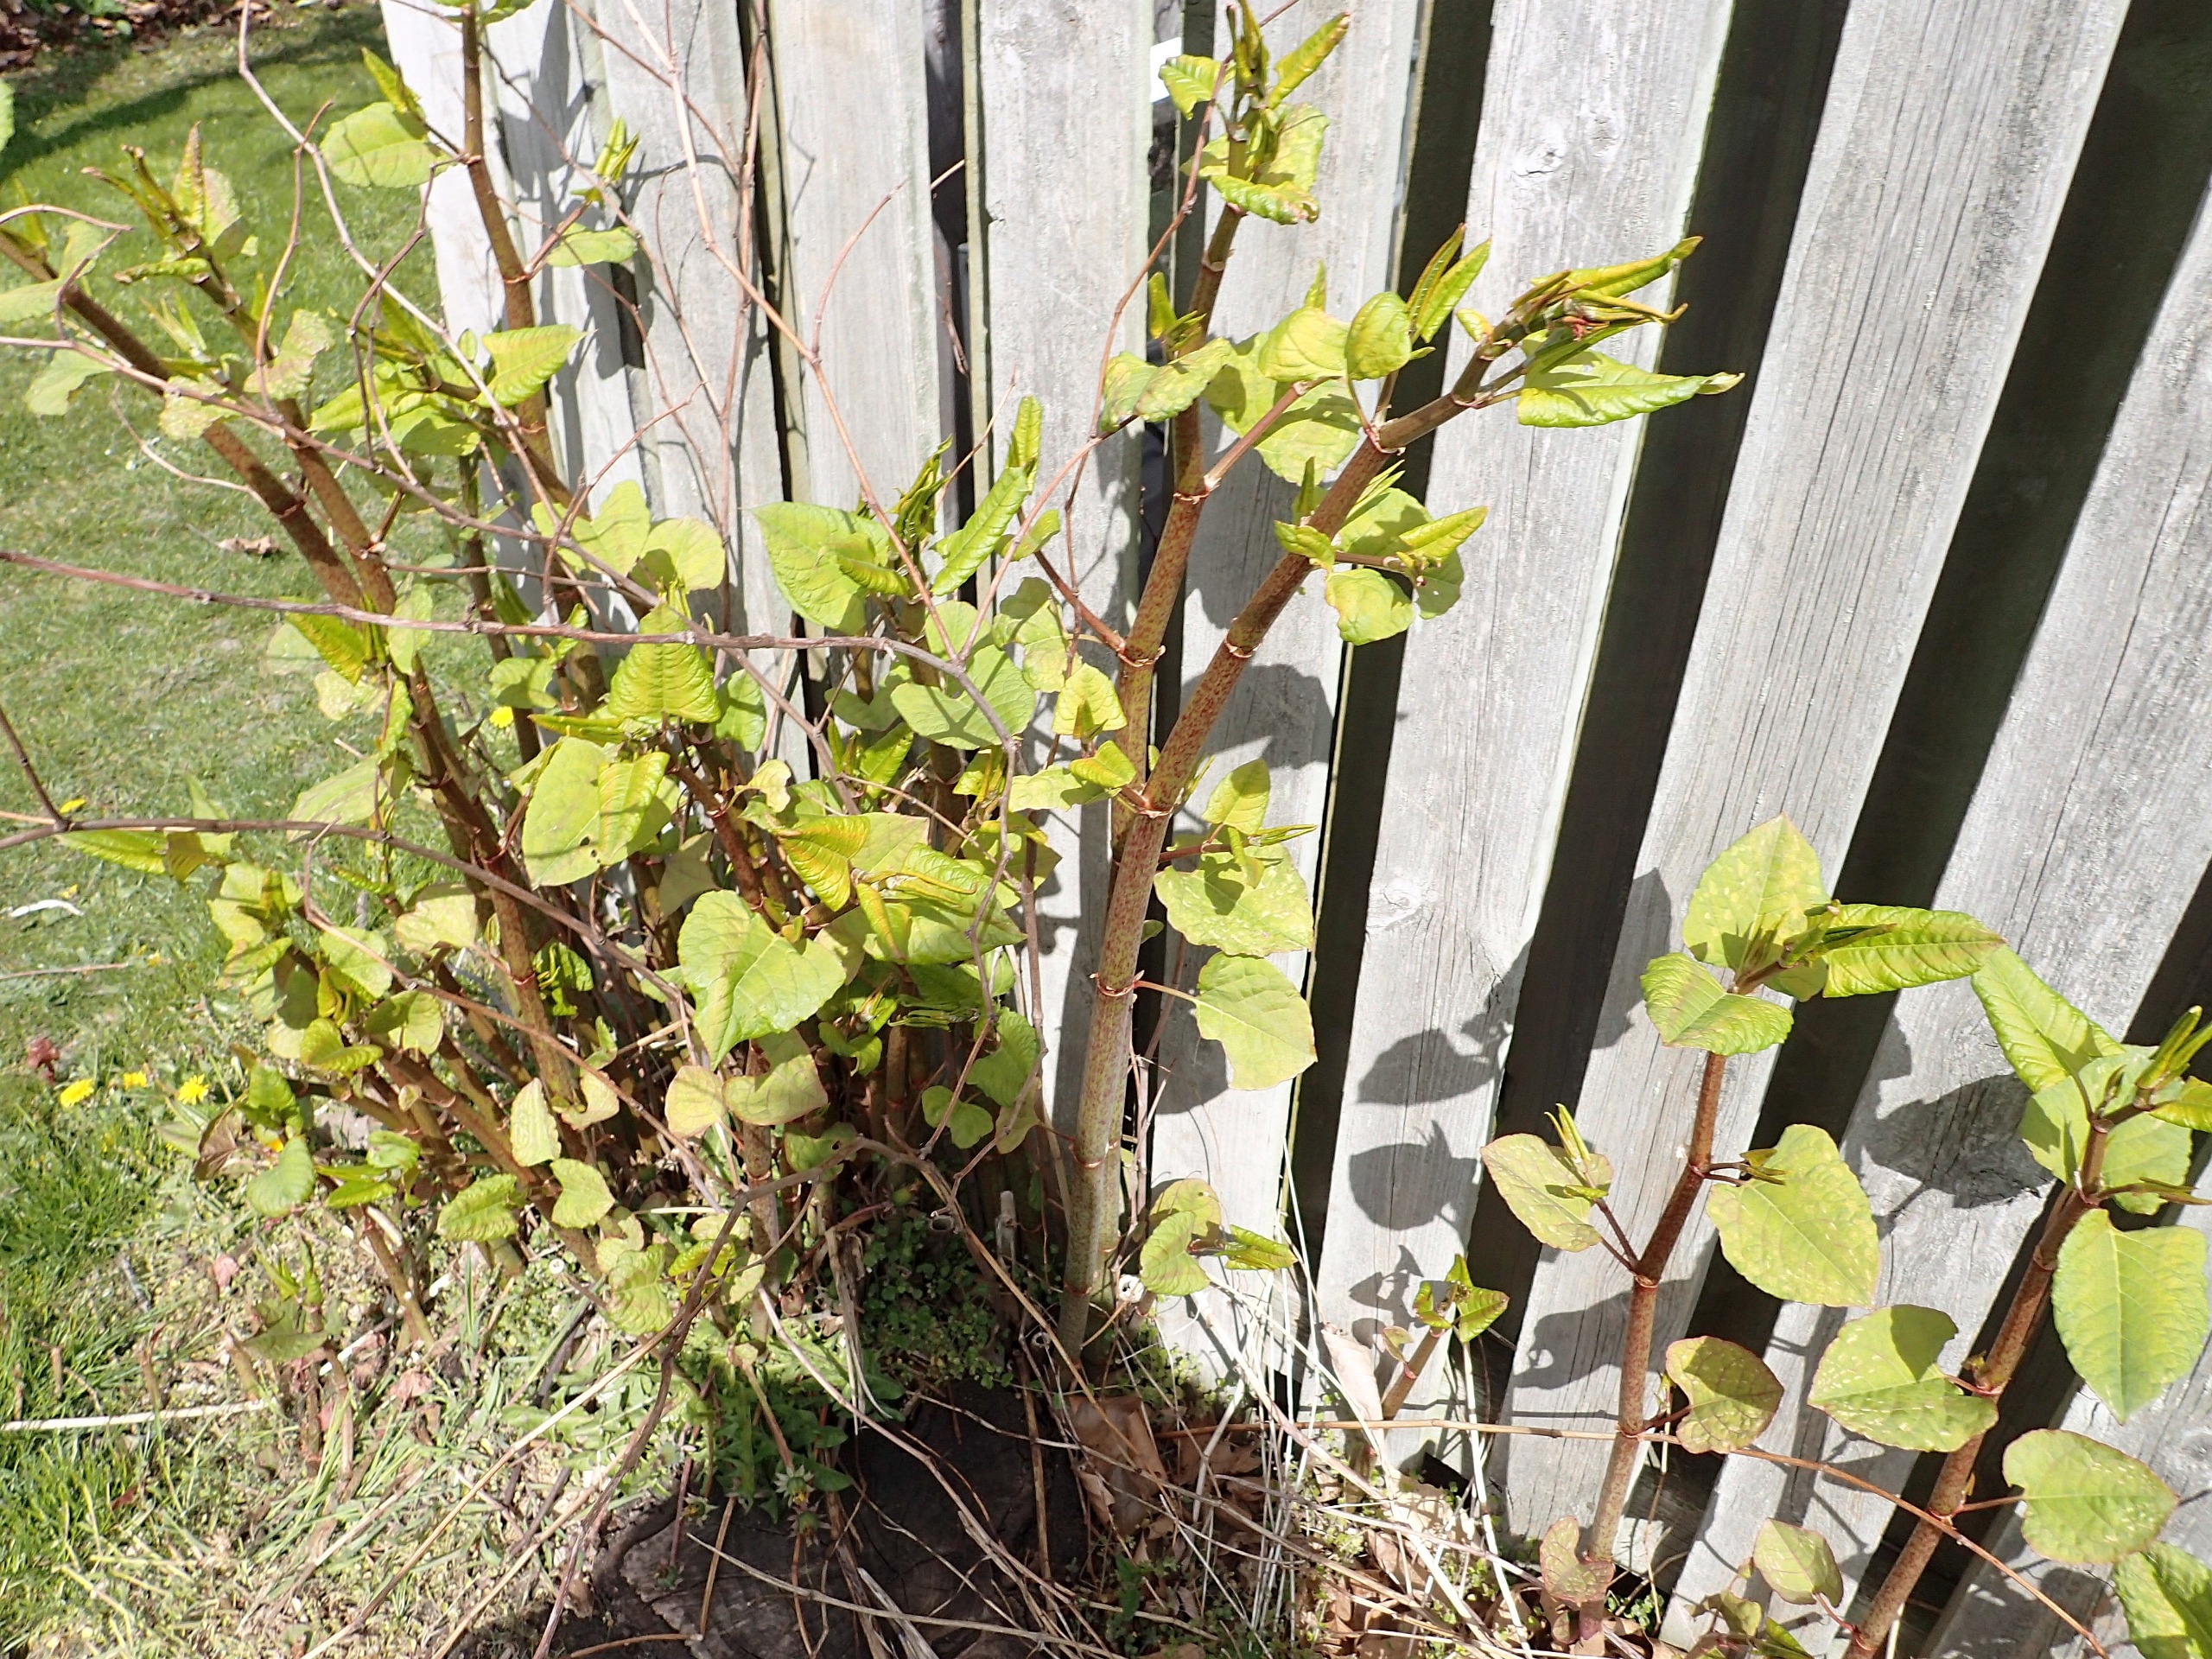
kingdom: Plantae
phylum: Tracheophyta
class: Magnoliopsida
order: Caryophyllales
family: Polygonaceae
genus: Reynoutria
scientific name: Reynoutria bohemica
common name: Hybrid-pileurt
